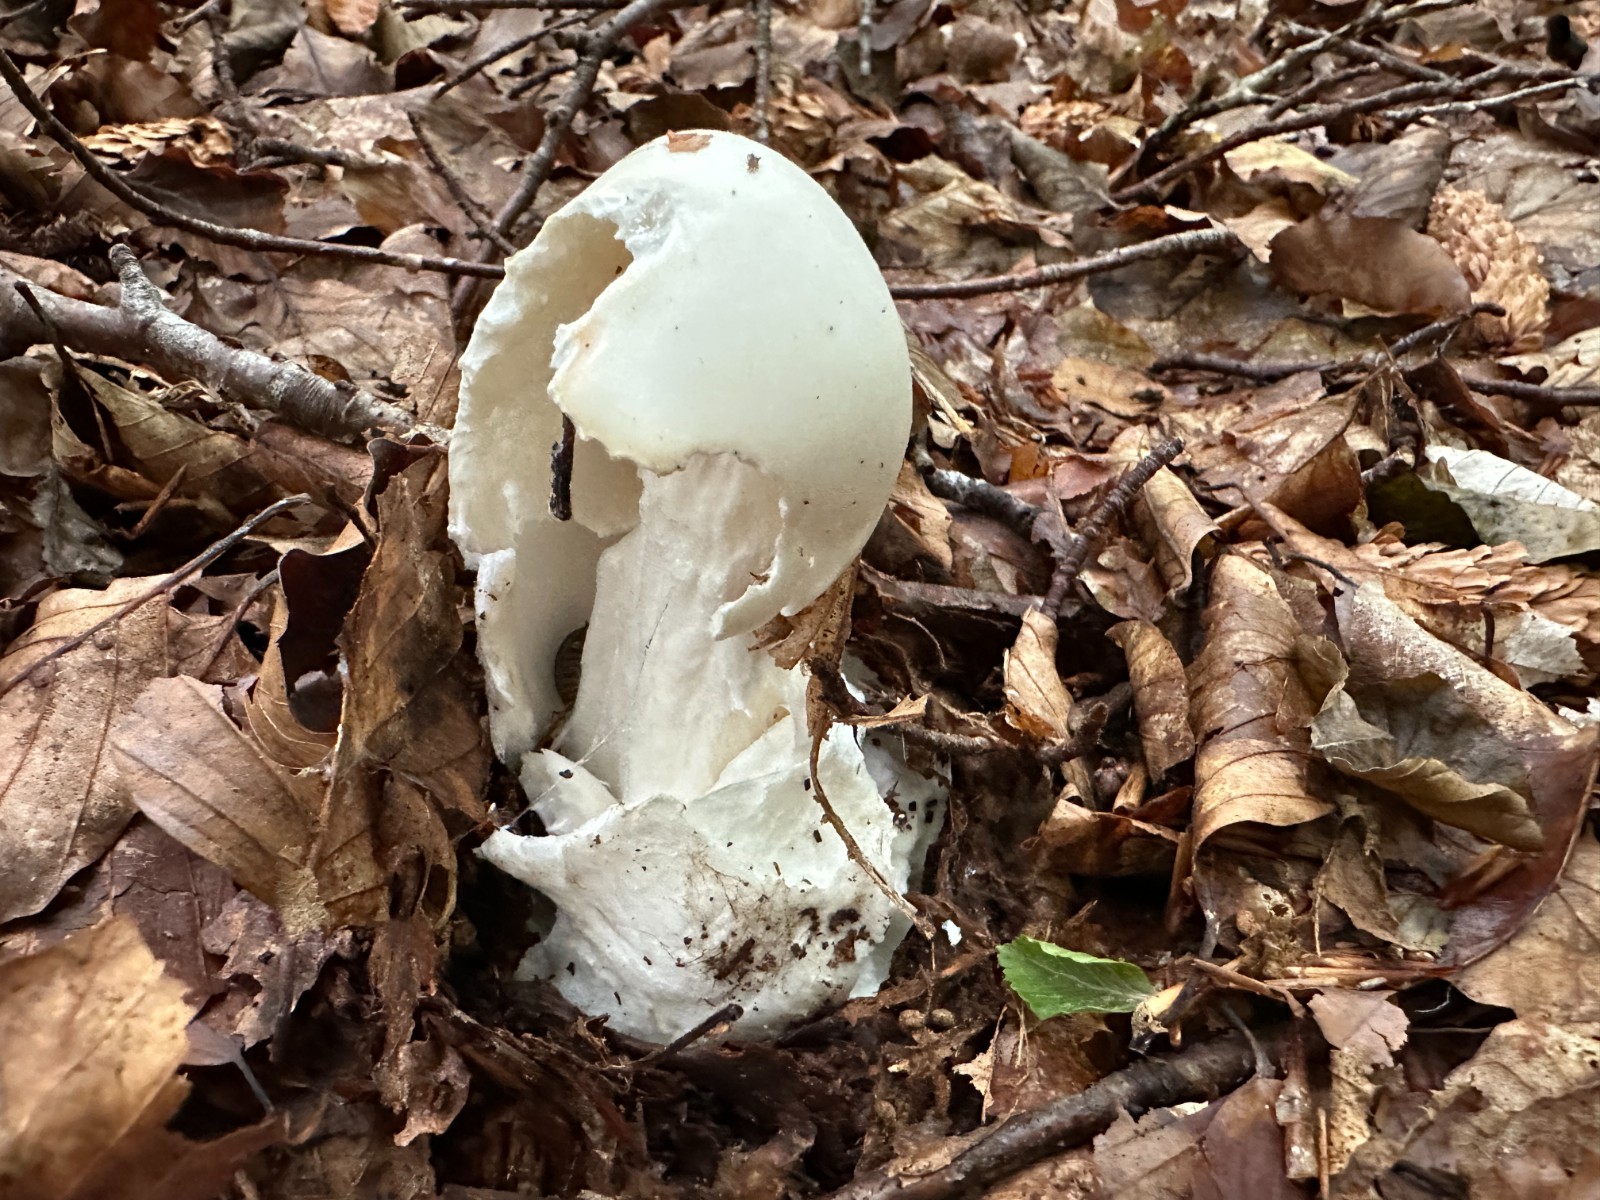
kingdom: Fungi
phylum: Basidiomycota
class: Agaricomycetes
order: Agaricales
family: Amanitaceae
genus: Amanita
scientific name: Amanita virosa
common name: snehvid fluesvamp
